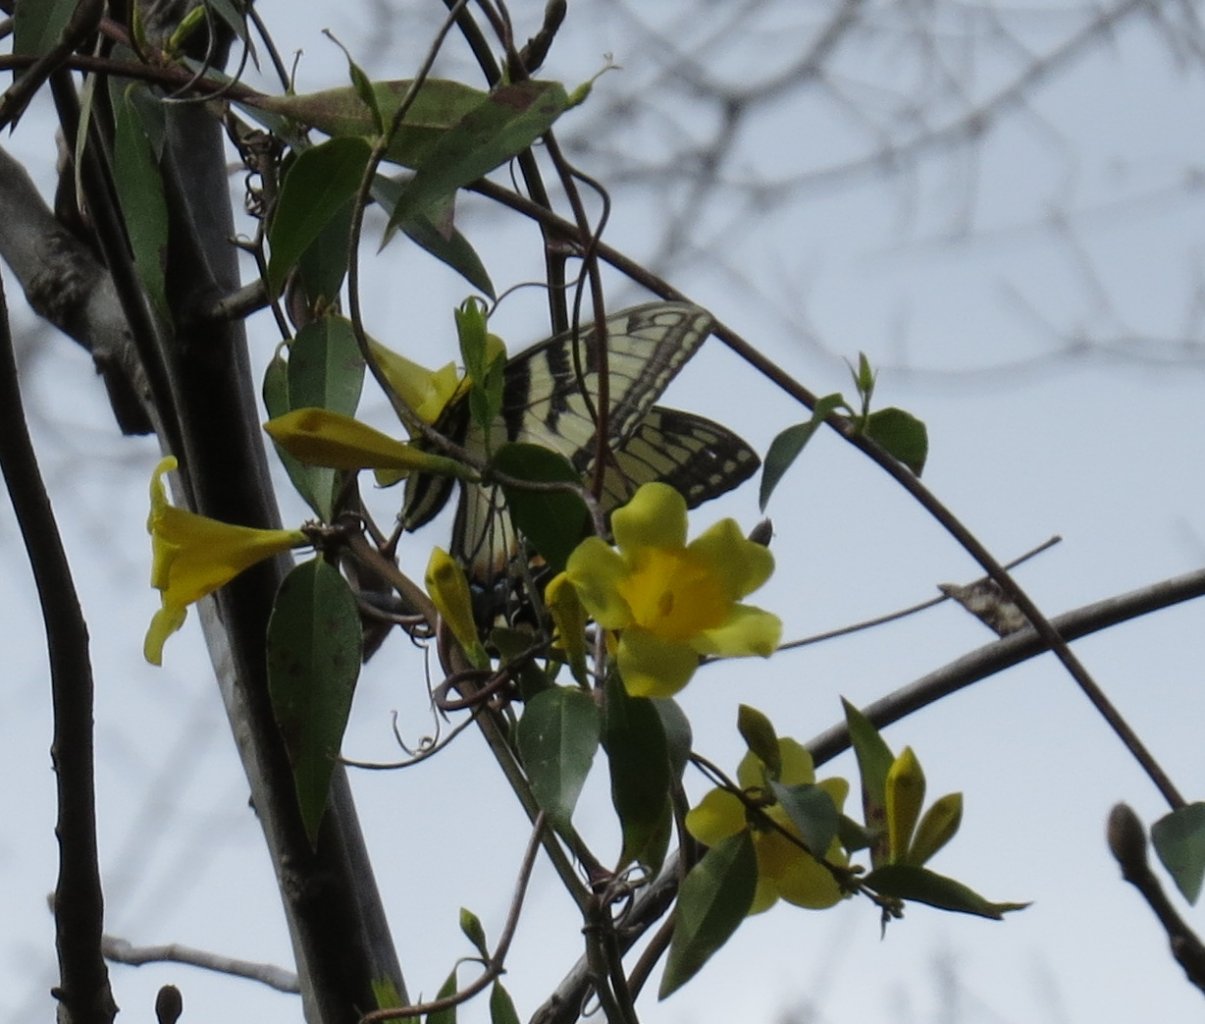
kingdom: Animalia
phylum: Arthropoda
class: Insecta
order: Lepidoptera
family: Papilionidae
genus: Pterourus
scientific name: Pterourus glaucus
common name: Eastern Tiger Swallowtail
